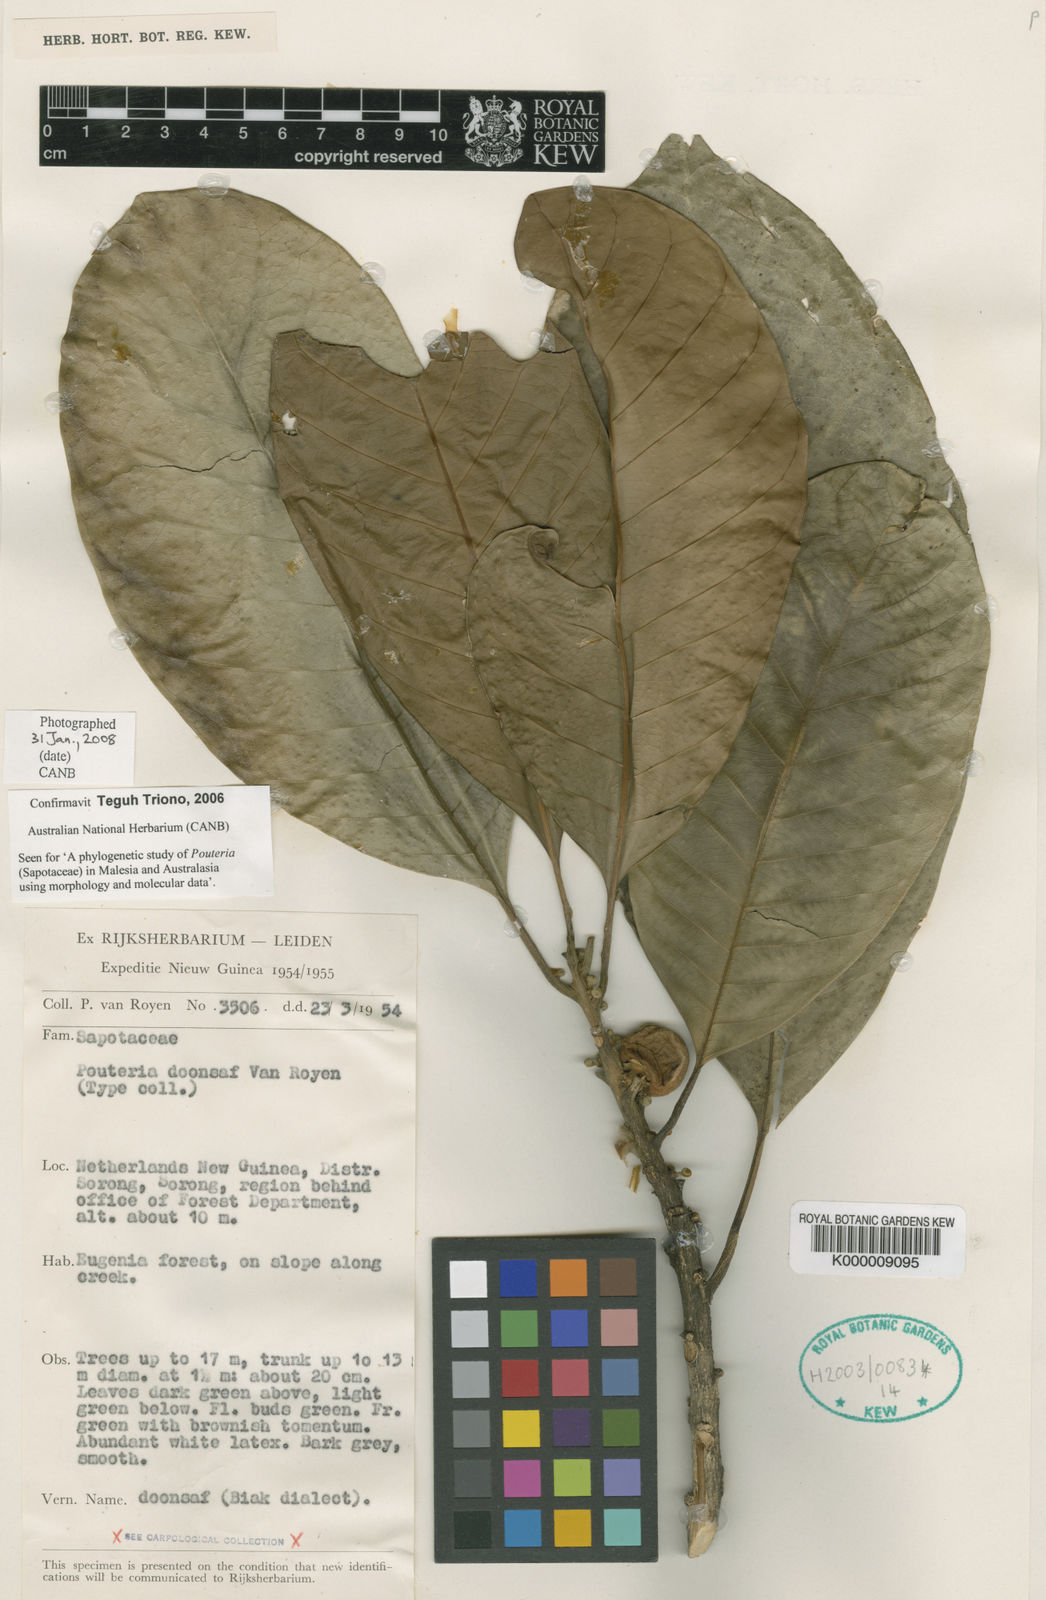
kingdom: Plantae
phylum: Tracheophyta
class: Magnoliopsida
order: Ericales
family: Sapotaceae
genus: Planchonella
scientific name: Planchonella pomifera
